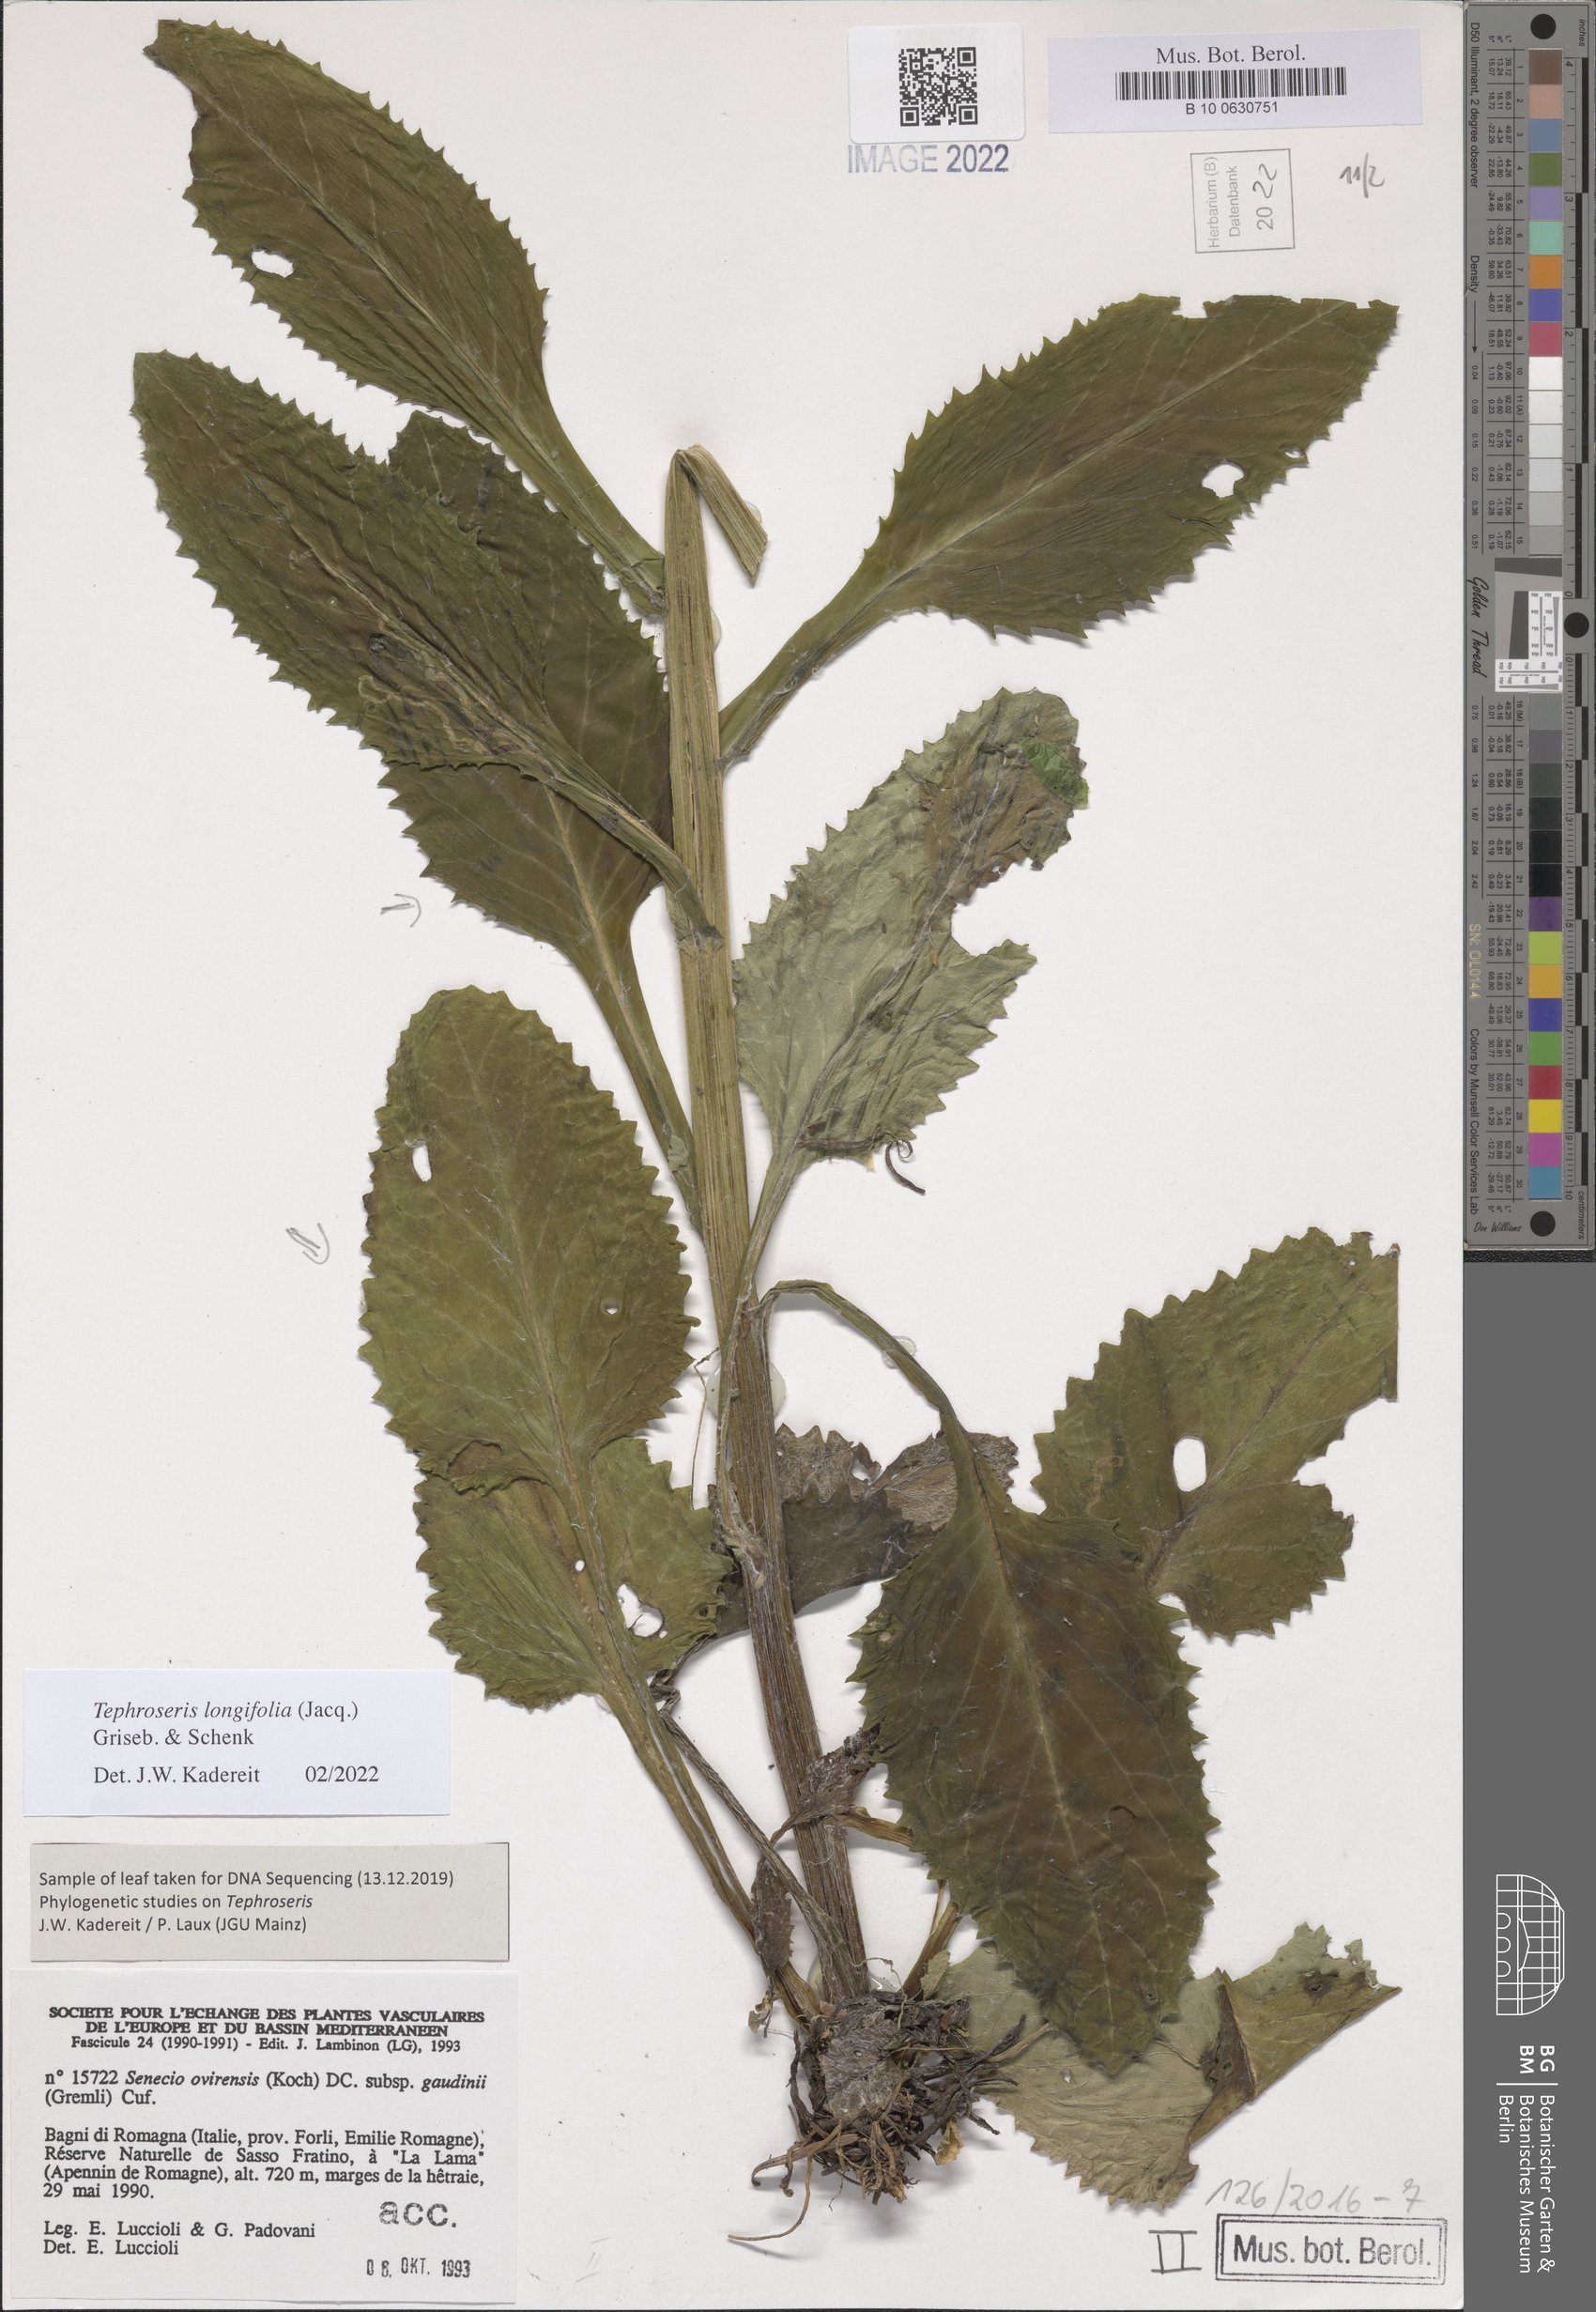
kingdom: Plantae
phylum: Tracheophyta
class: Magnoliopsida
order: Asterales
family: Asteraceae
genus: Tephroseris
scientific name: Tephroseris longifolia
